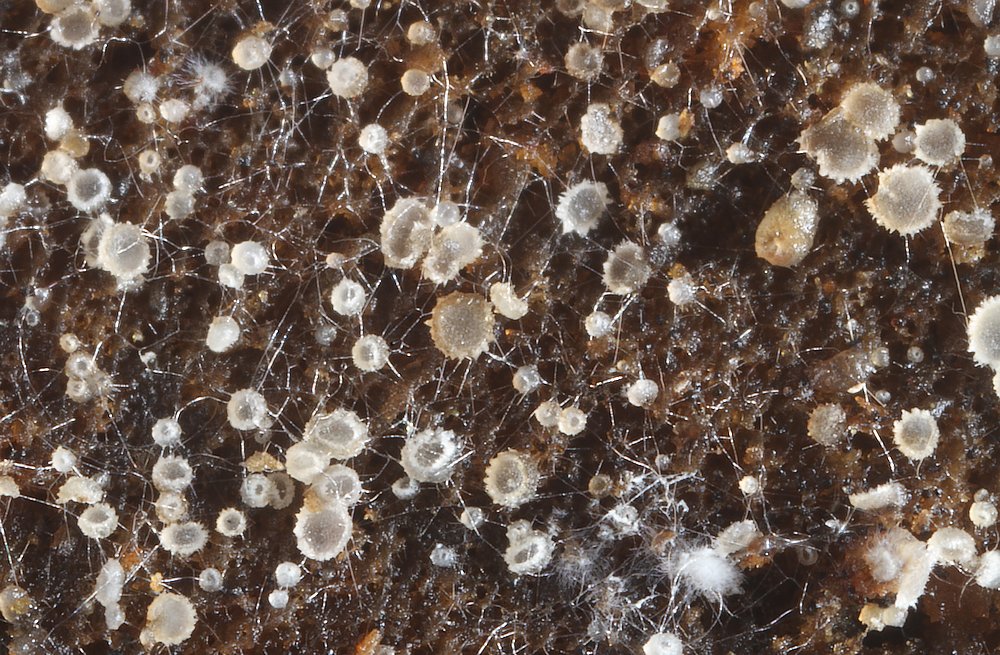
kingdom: Fungi
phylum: Ascomycota
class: Leotiomycetes
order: Helotiales
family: Hyaloscyphaceae
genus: Protounguicularia
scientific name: Protounguicularia transiens
